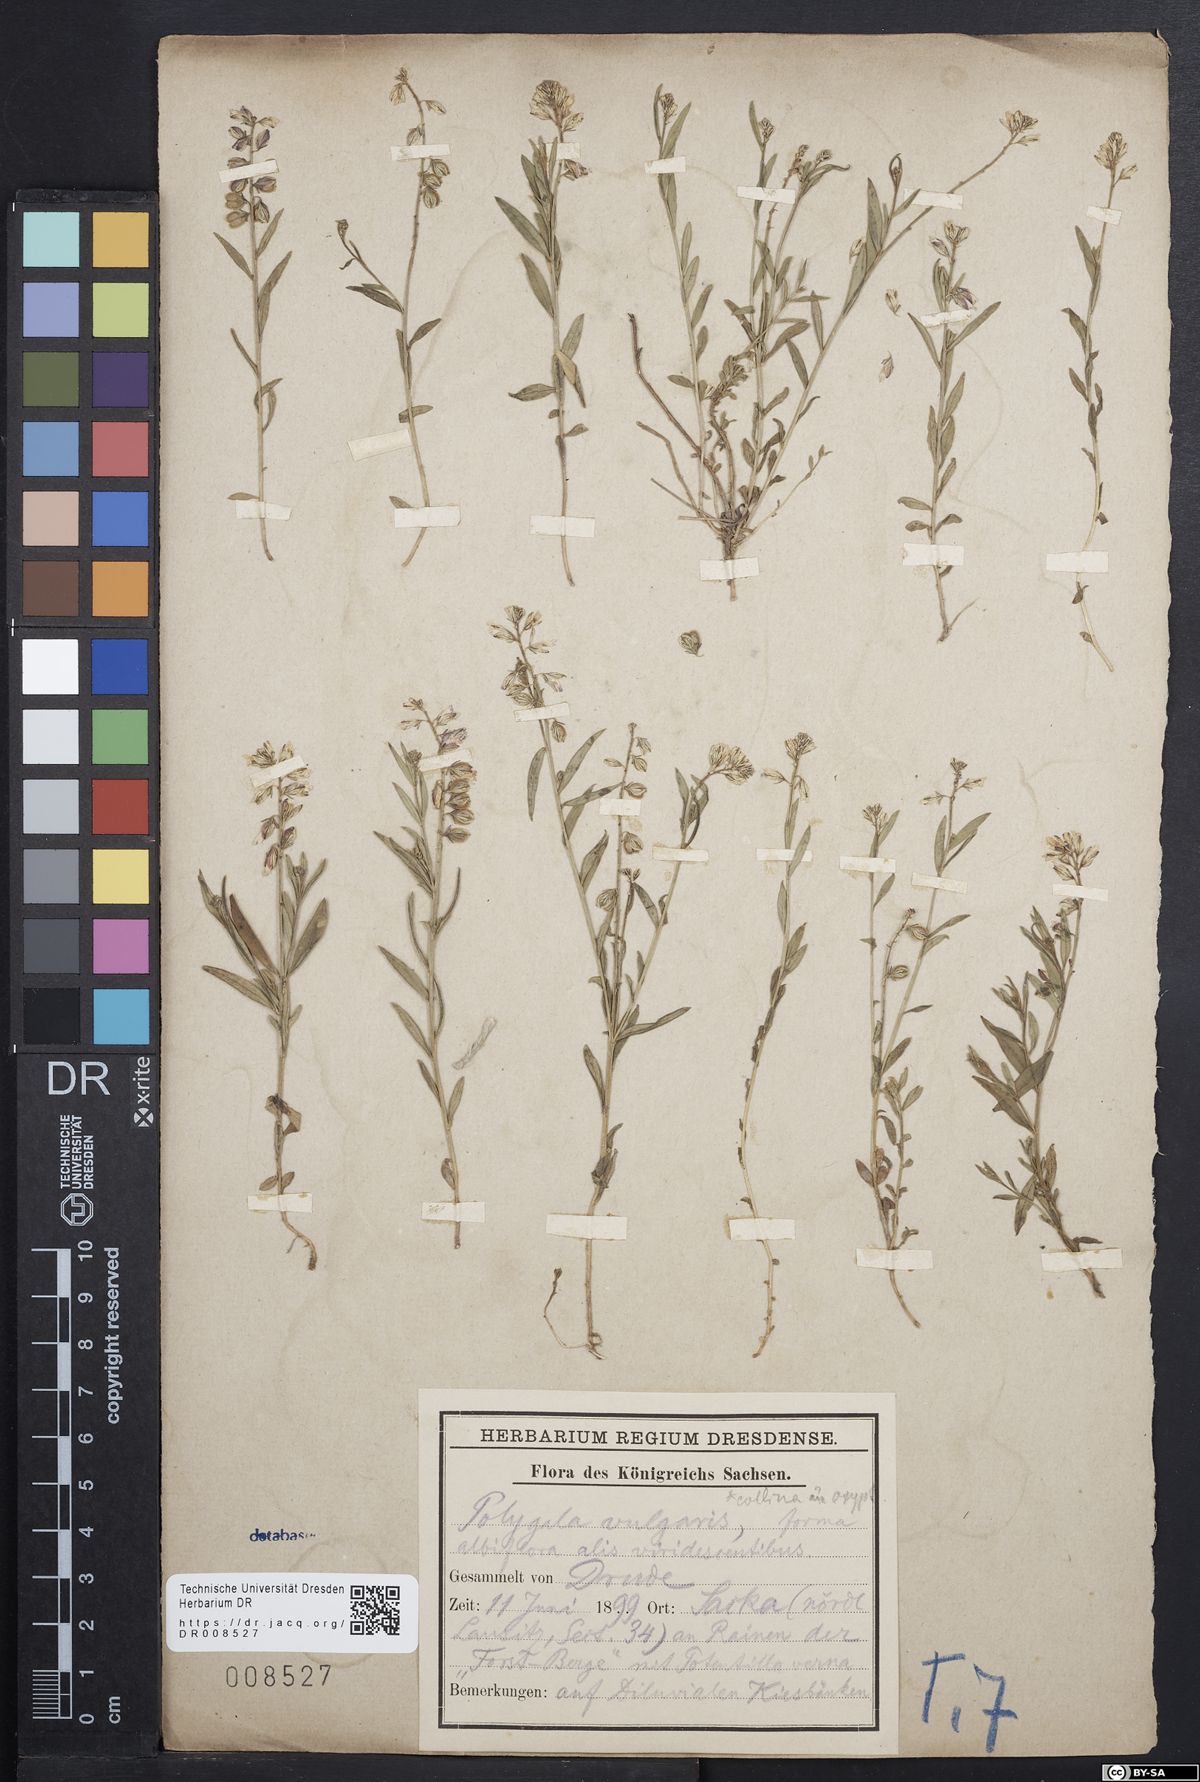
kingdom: Plantae
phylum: Tracheophyta
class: Magnoliopsida
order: Fabales
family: Polygalaceae
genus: Polygala
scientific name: Polygala vulgaris
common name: Common milkwort
